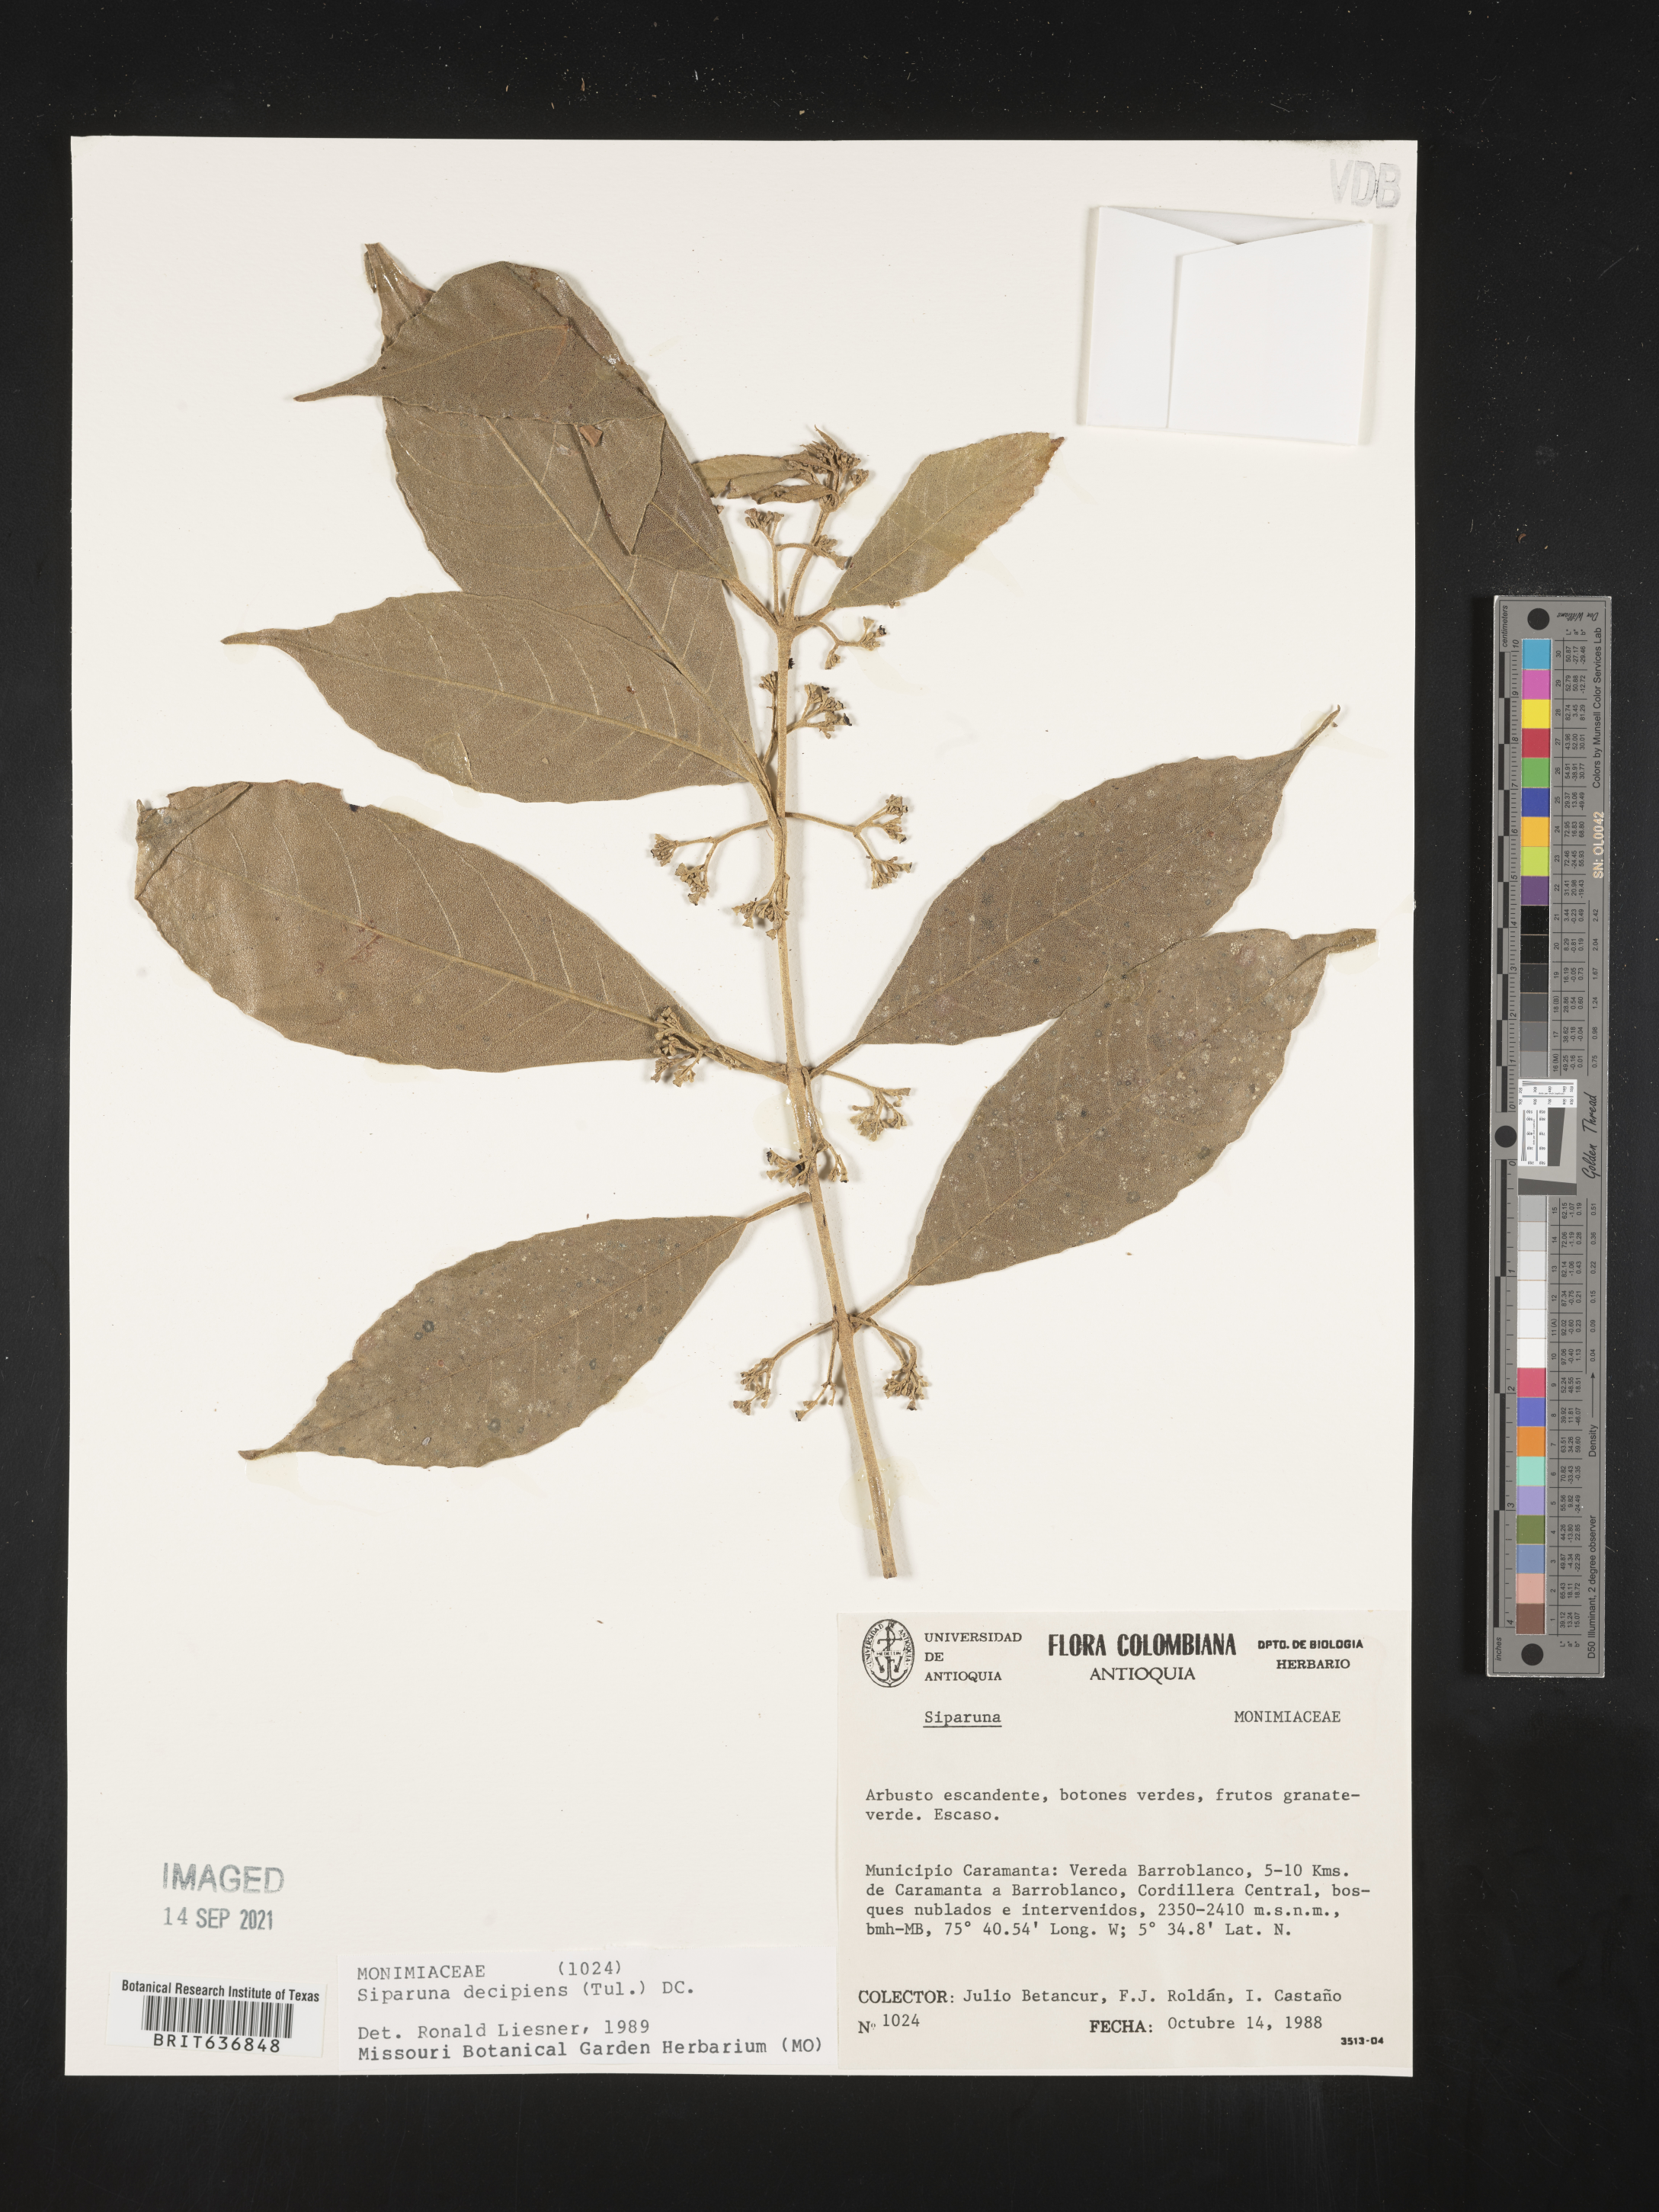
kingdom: Plantae
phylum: Tracheophyta
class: Magnoliopsida
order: Laurales
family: Siparunaceae
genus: Siparuna
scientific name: Siparuna
